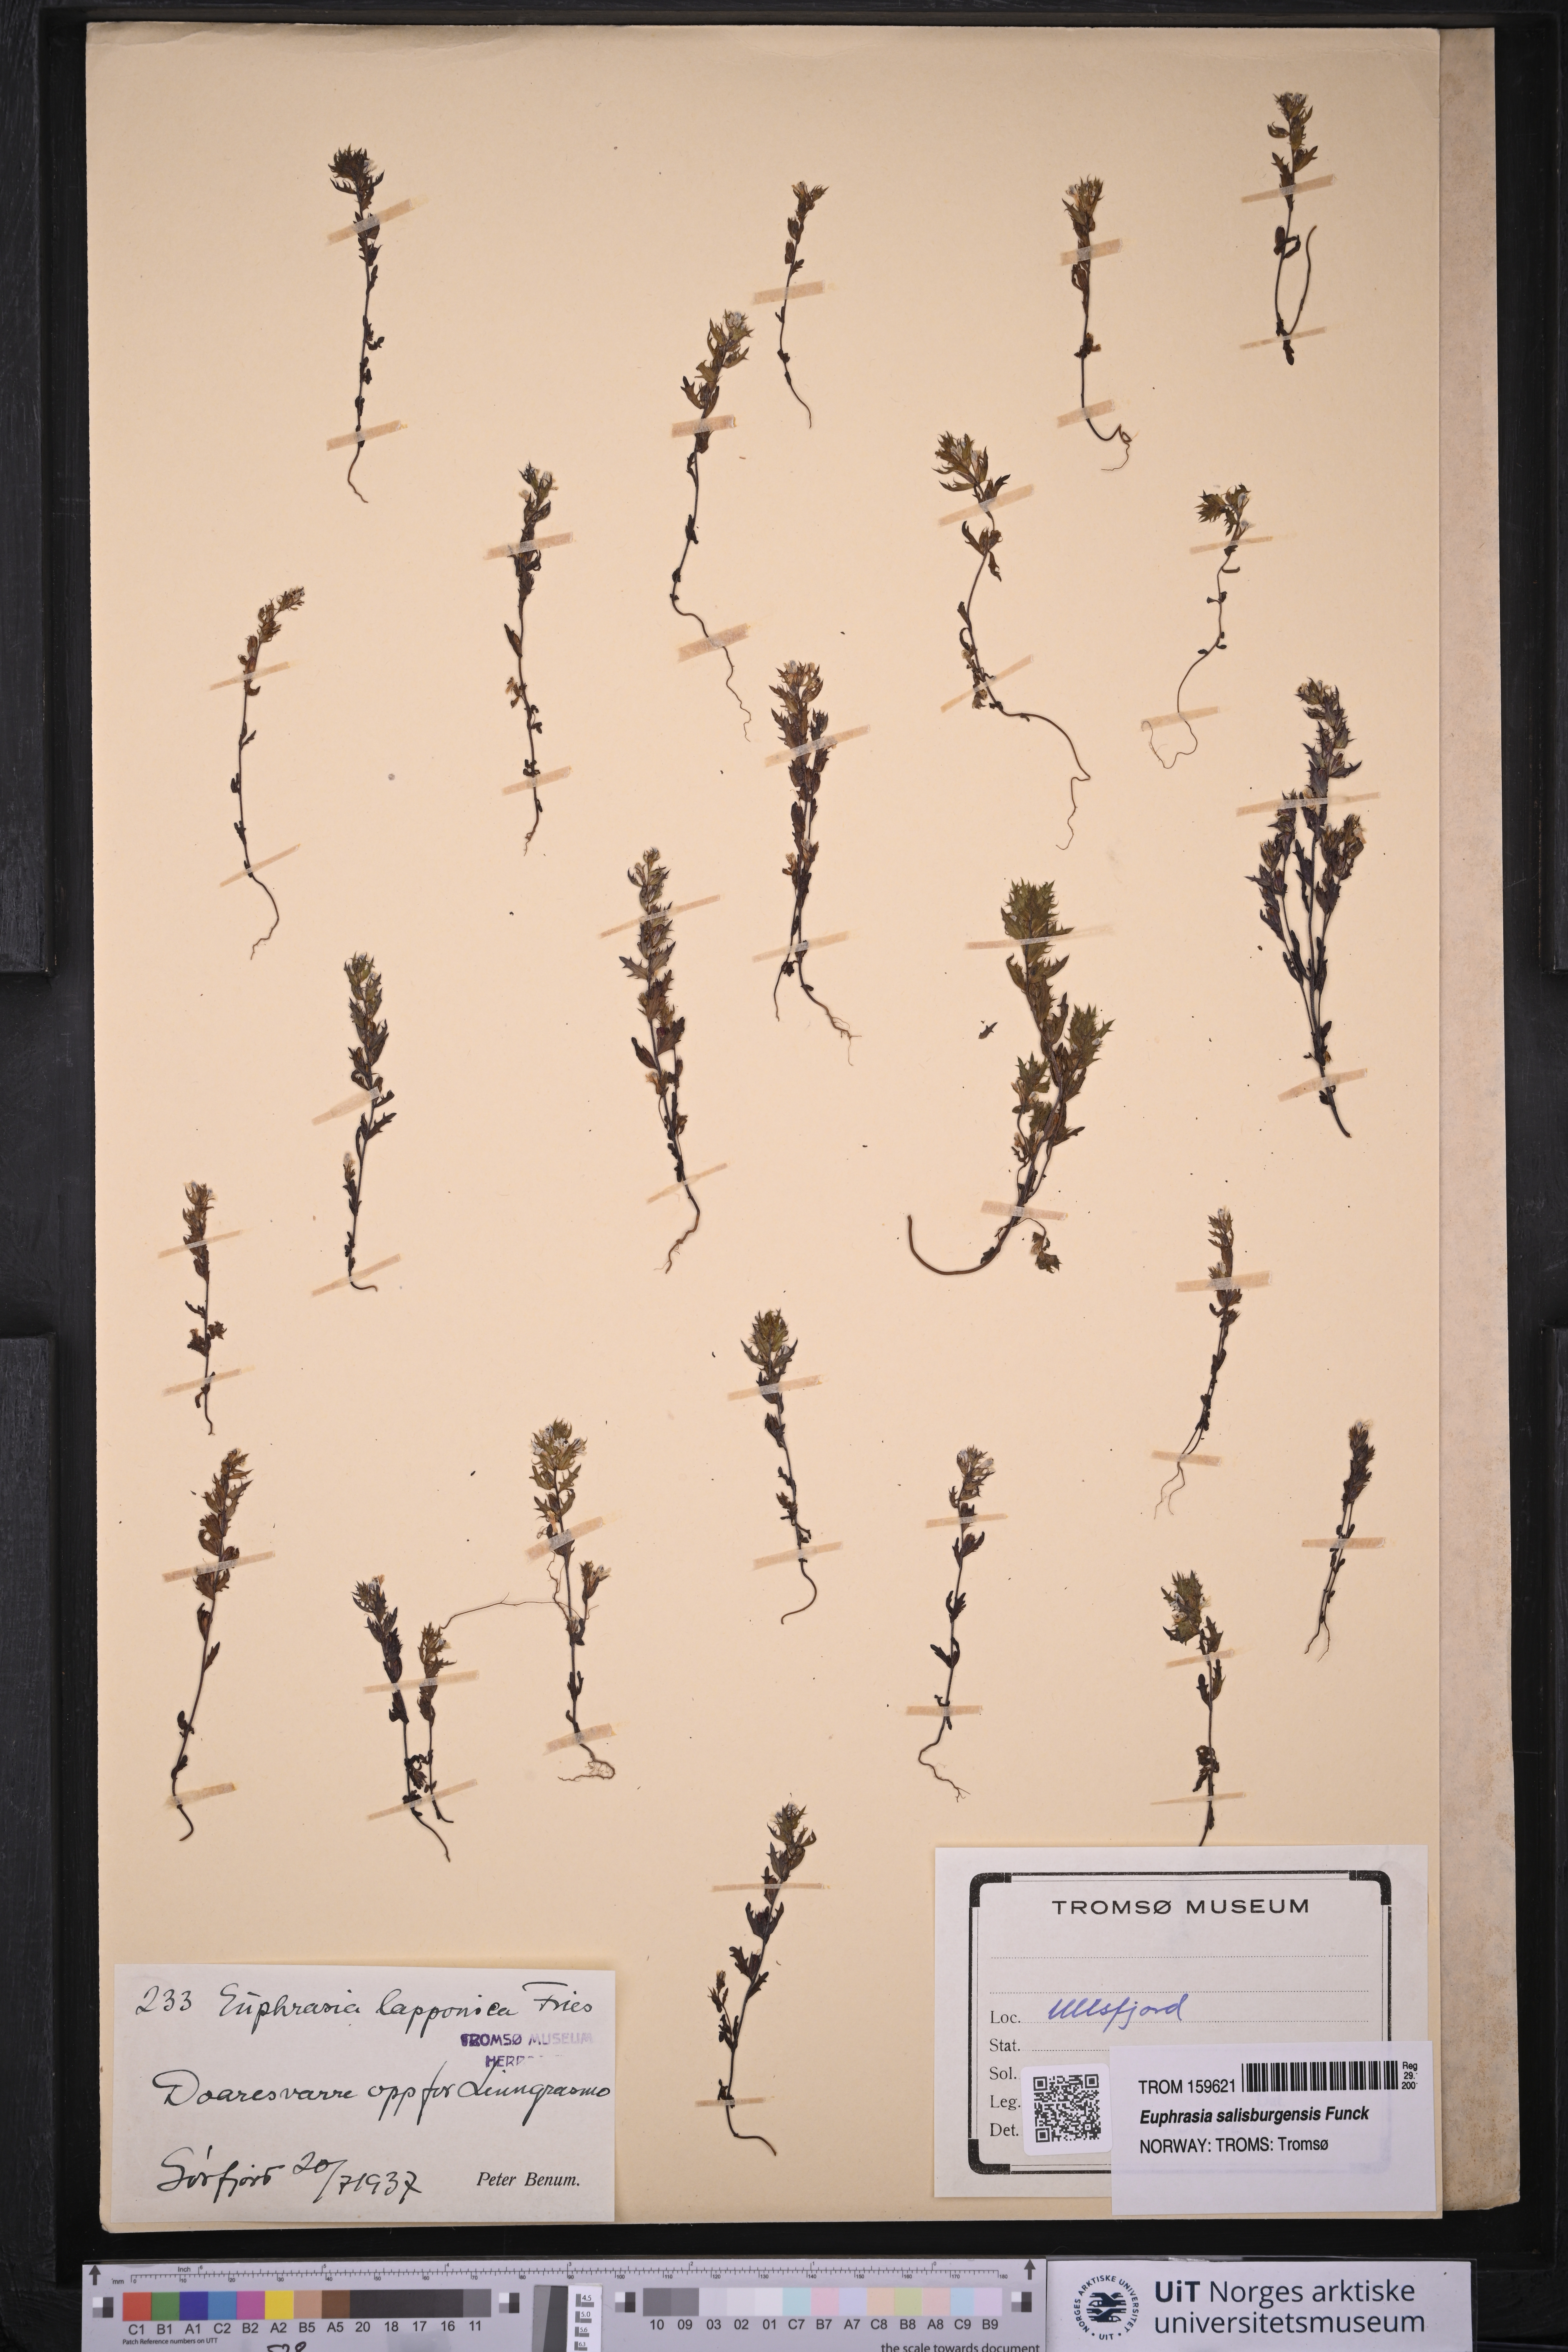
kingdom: Plantae
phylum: Tracheophyta
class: Magnoliopsida
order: Lamiales
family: Orobanchaceae
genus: Euphrasia
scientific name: Euphrasia salisburgensis
